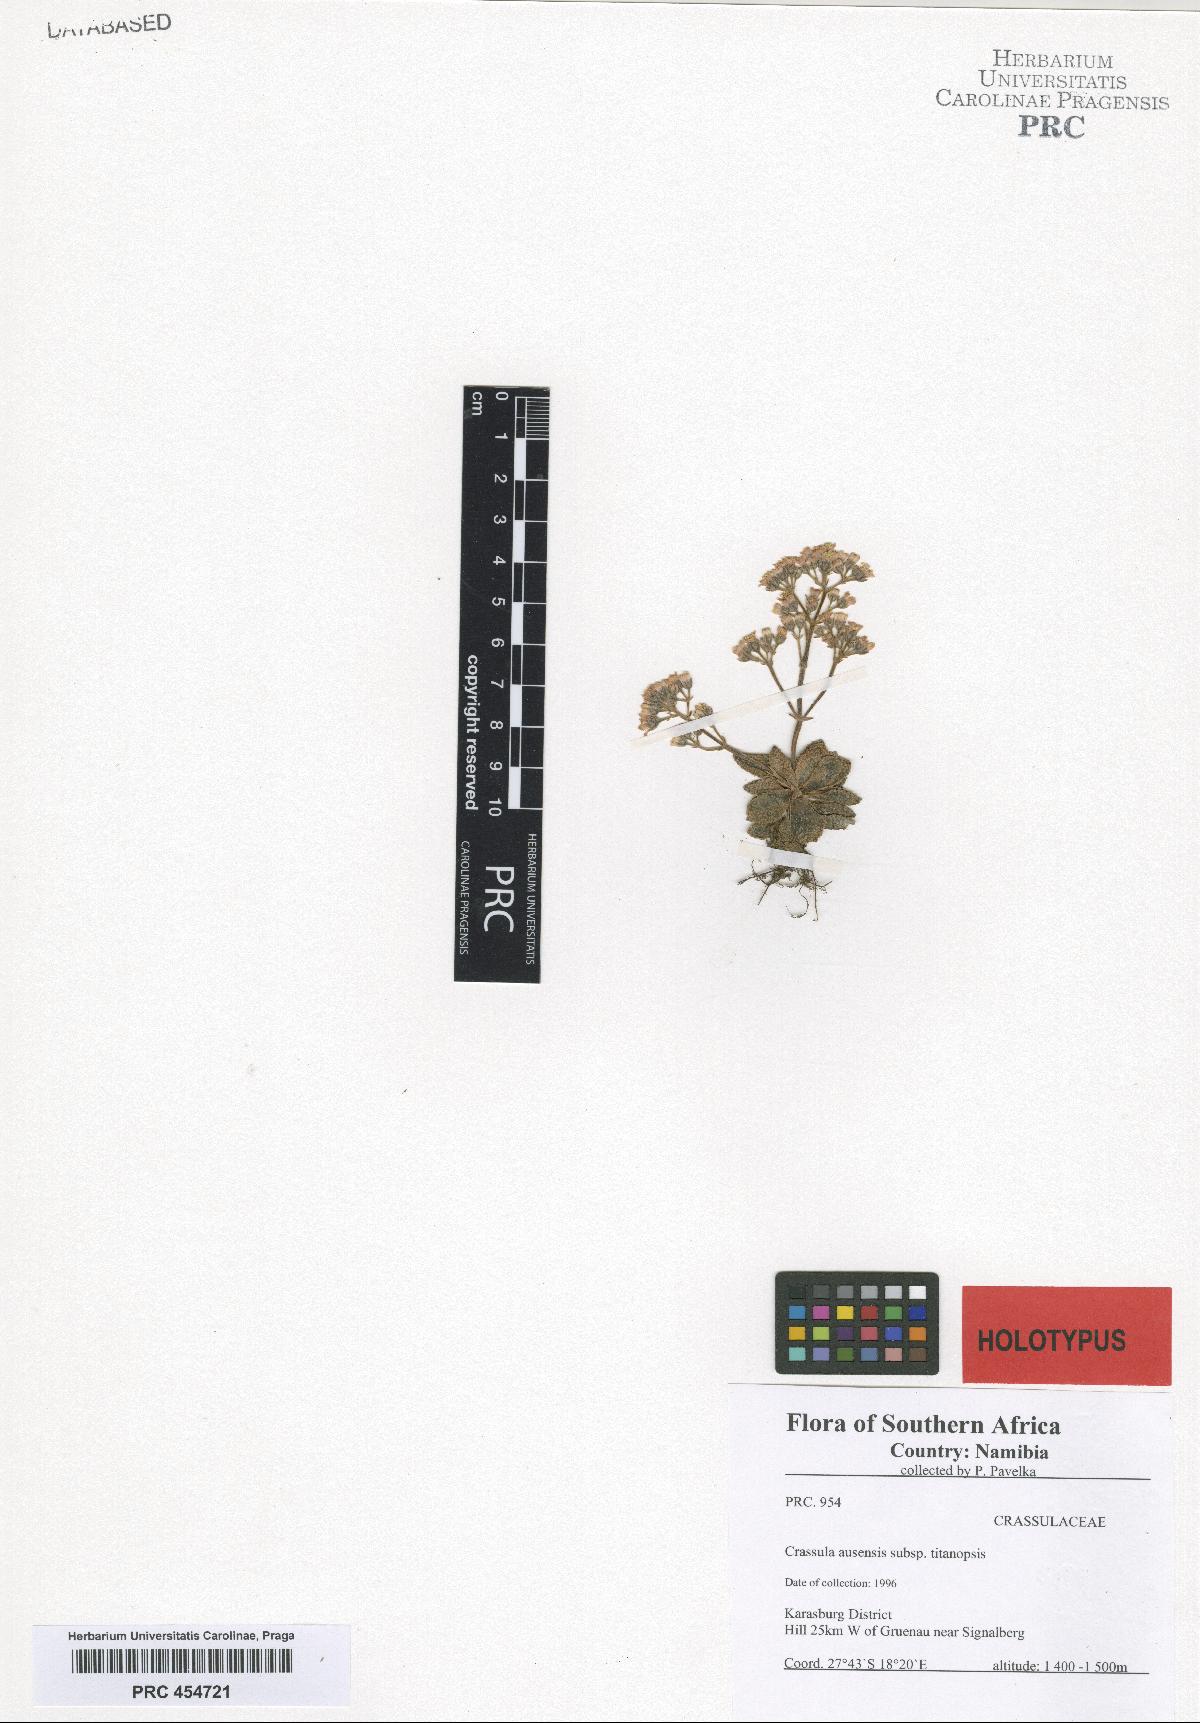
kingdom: Plantae
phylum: Tracheophyta
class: Magnoliopsida
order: Saxifragales
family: Crassulaceae
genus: Crassula
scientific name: Crassula ausensis
